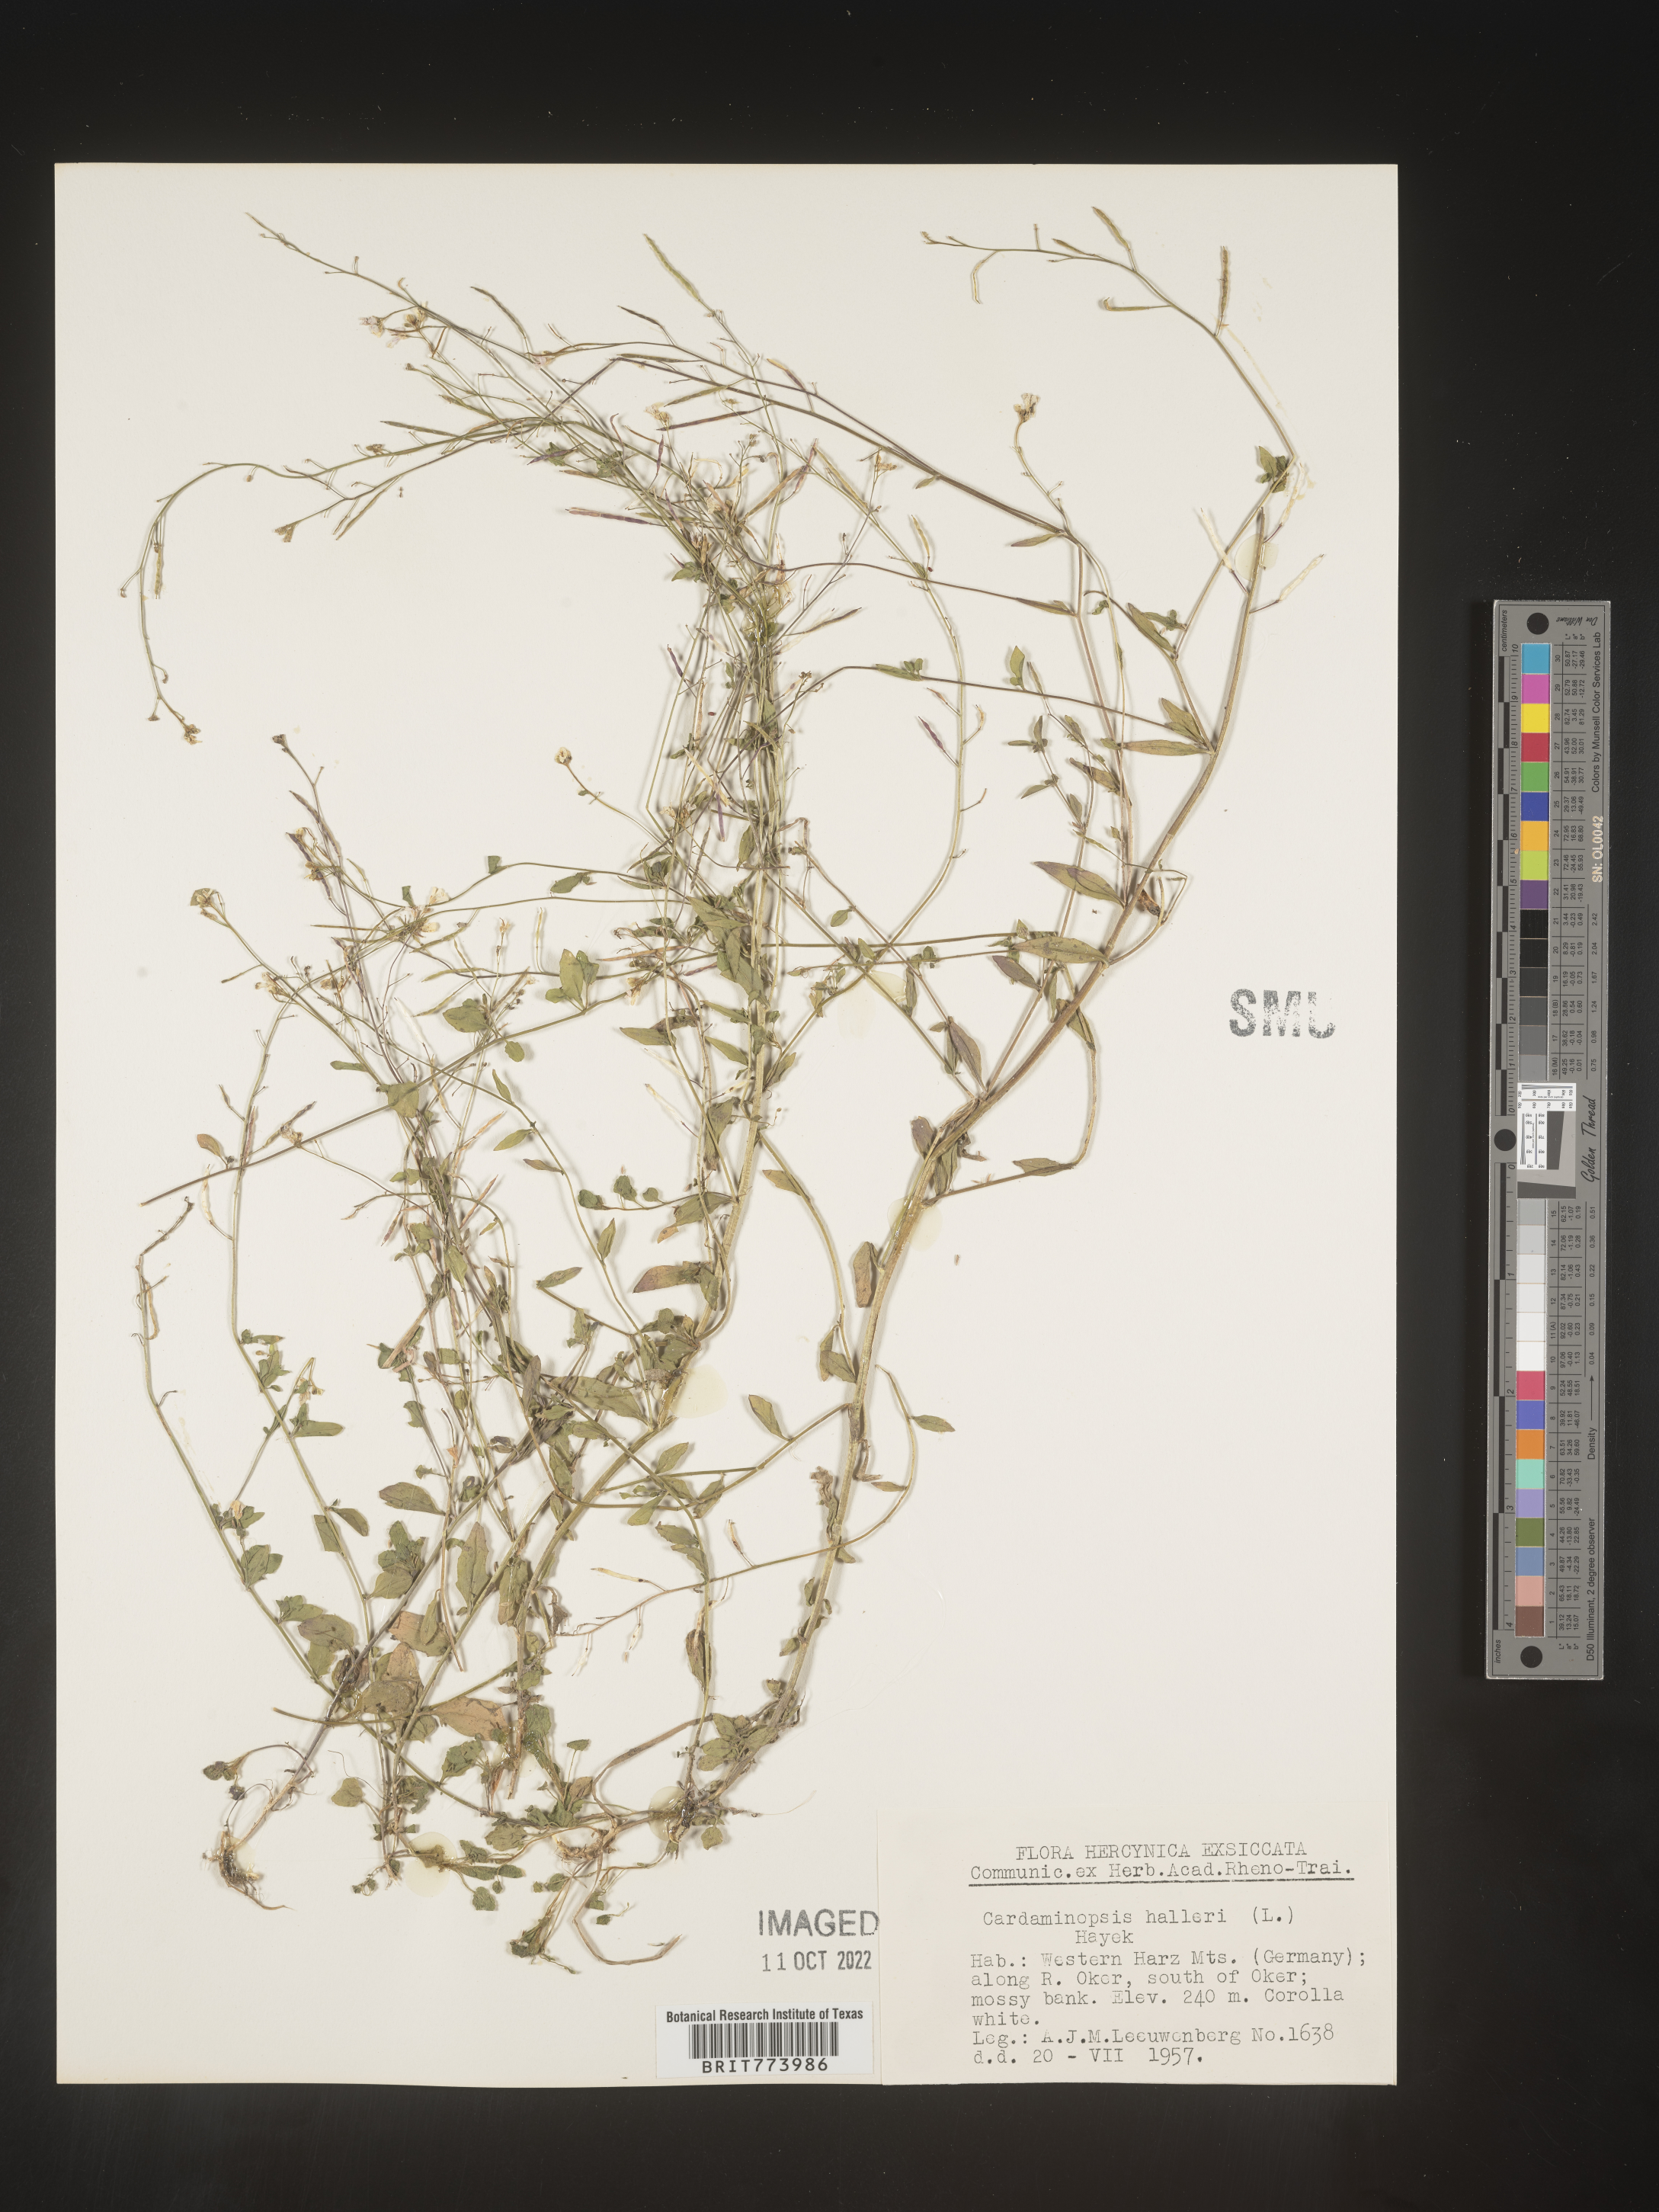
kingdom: Plantae
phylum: Tracheophyta
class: Magnoliopsida
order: Brassicales
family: Brassicaceae
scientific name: Brassicaceae
